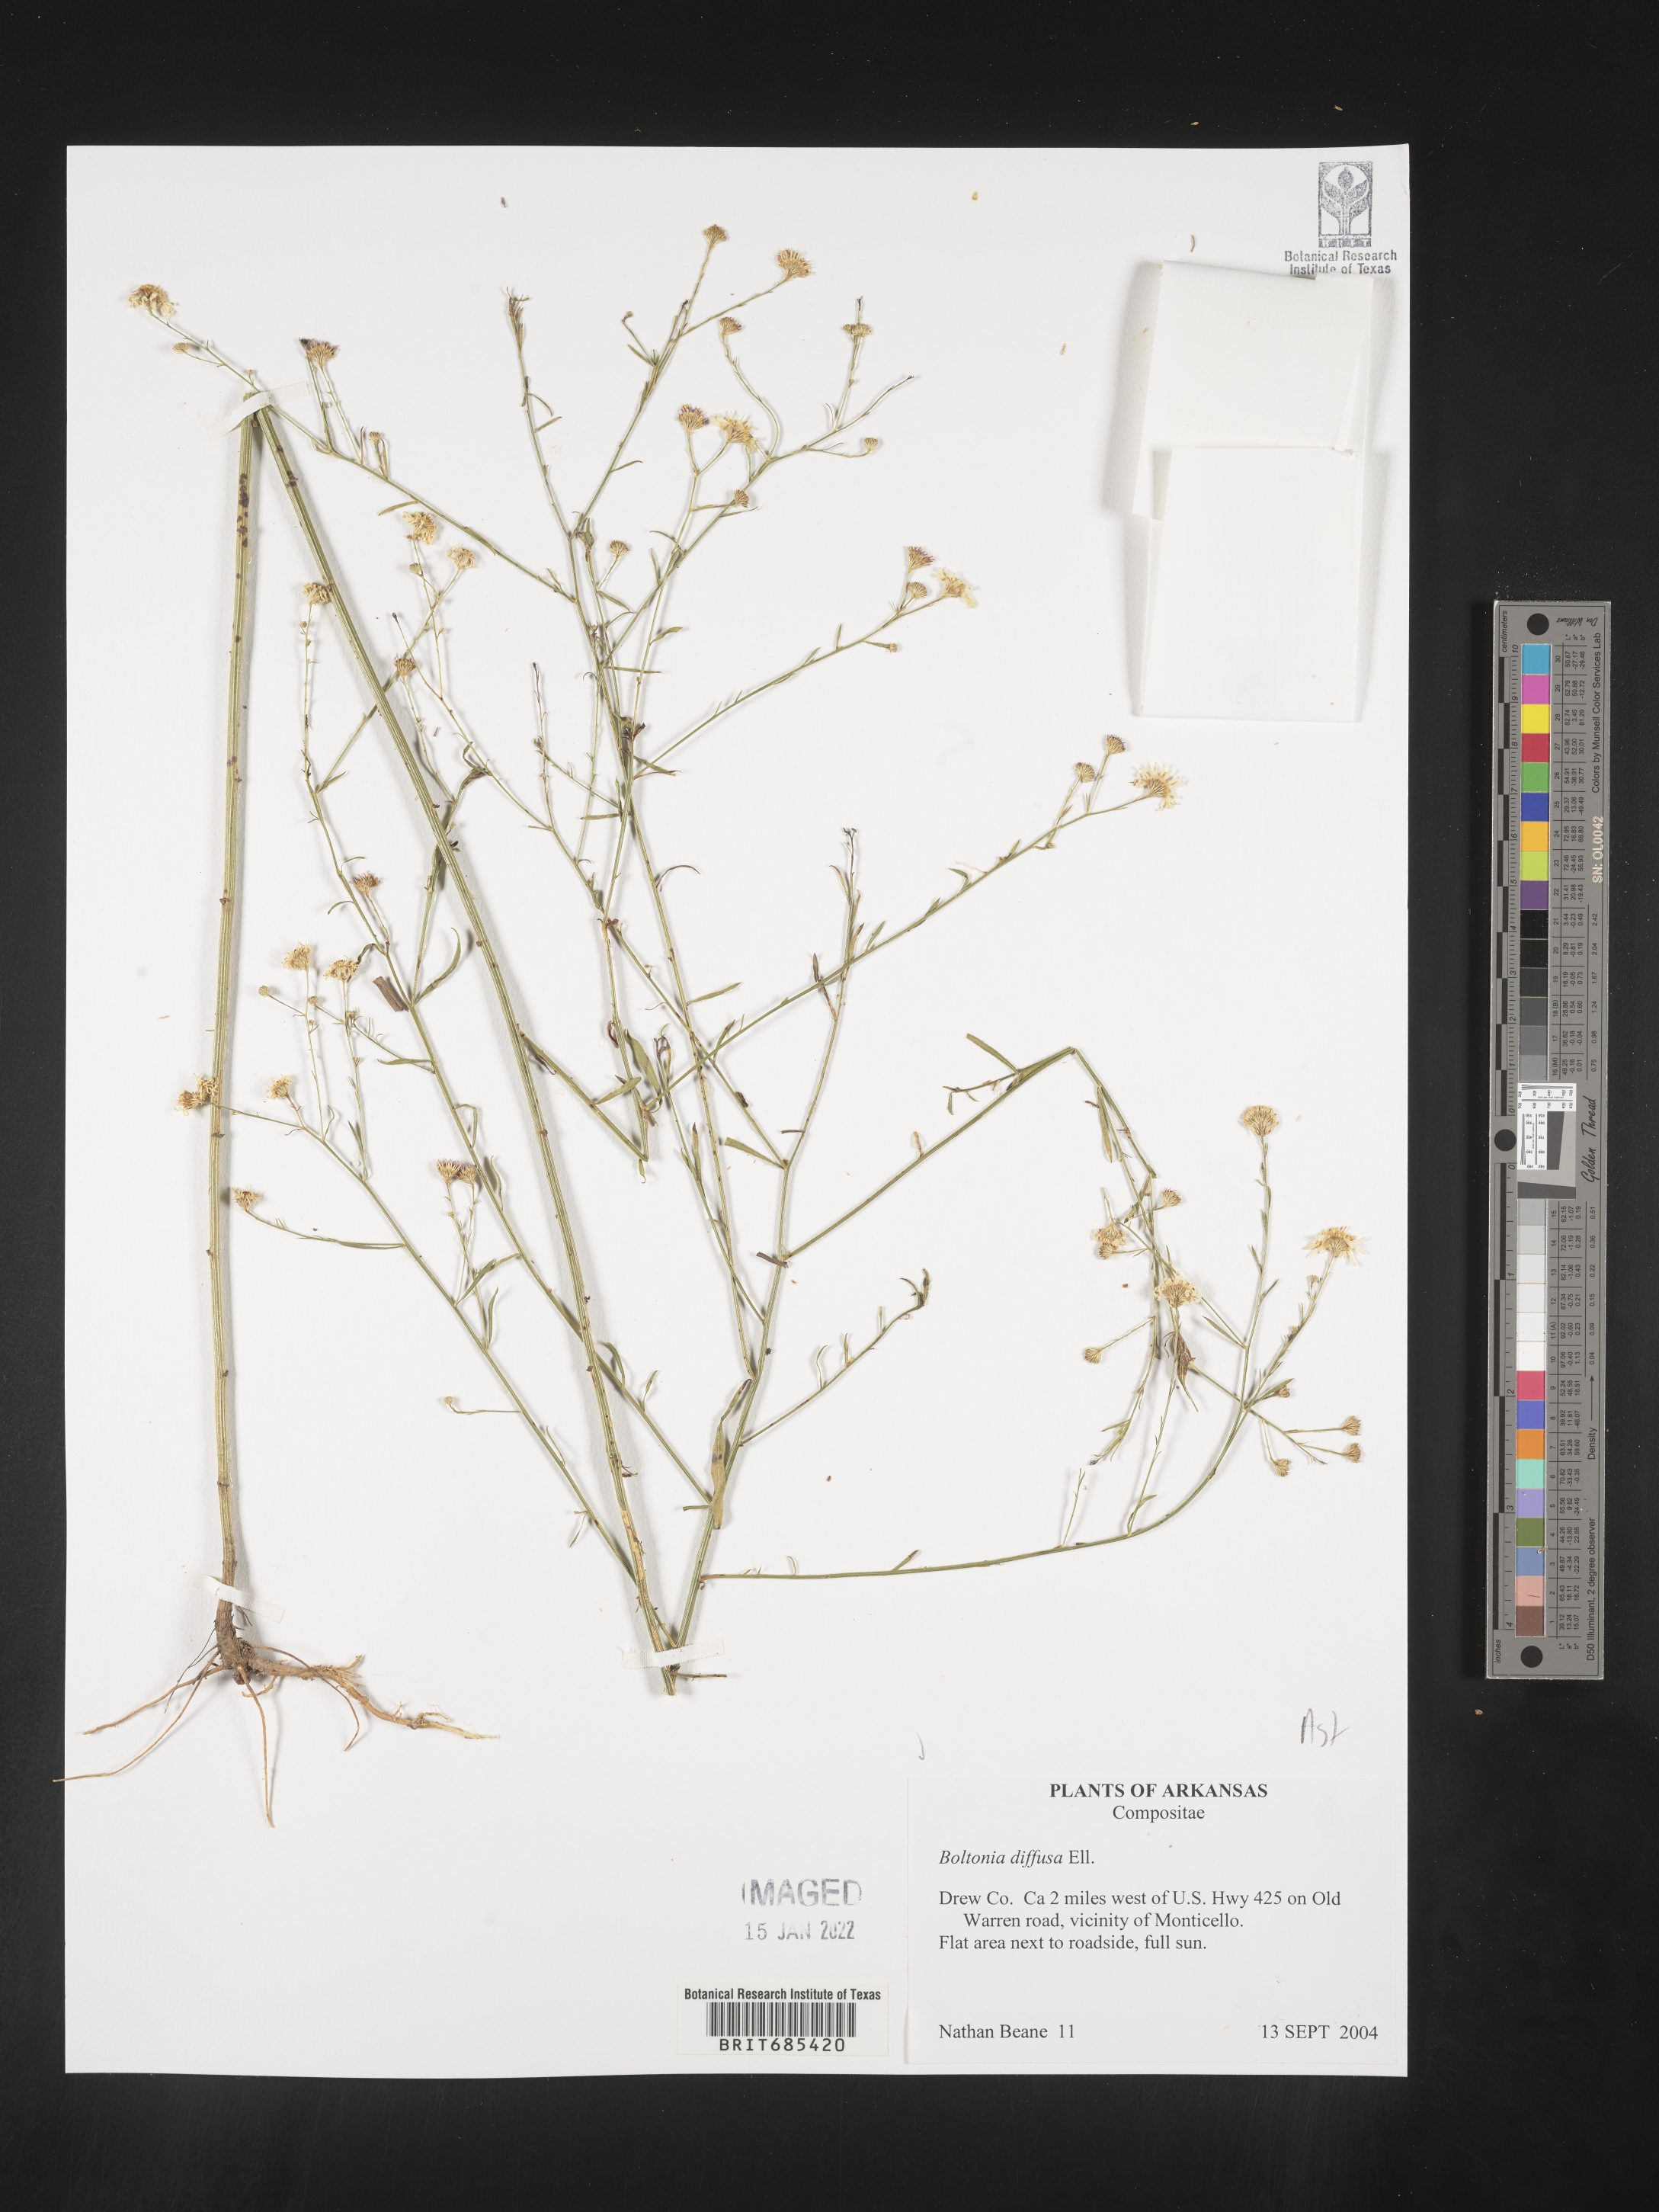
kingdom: Plantae
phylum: Tracheophyta
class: Magnoliopsida
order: Asterales
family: Asteraceae
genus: Boltonia
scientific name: Boltonia diffusa
